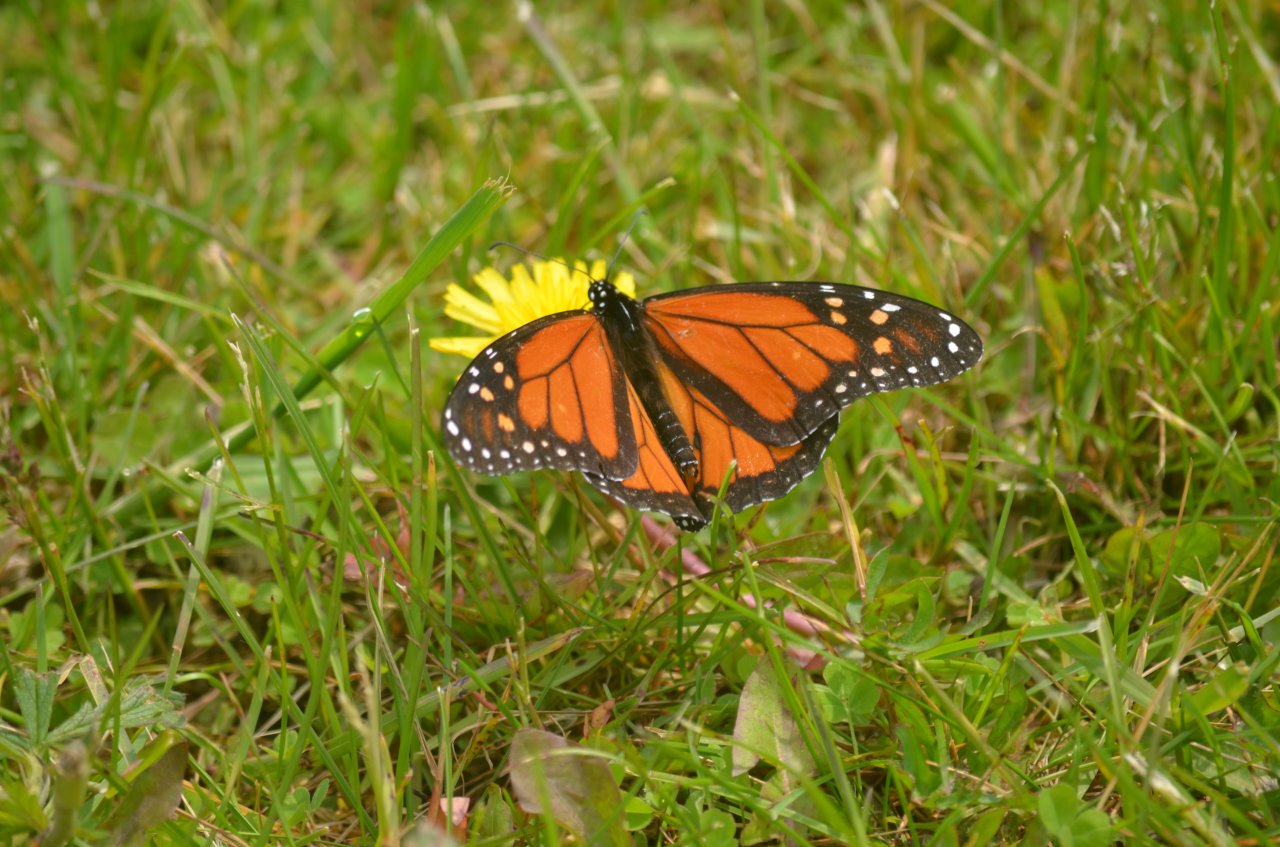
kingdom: Animalia
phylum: Arthropoda
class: Insecta
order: Lepidoptera
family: Nymphalidae
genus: Danaus
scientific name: Danaus plexippus
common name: Monarch
